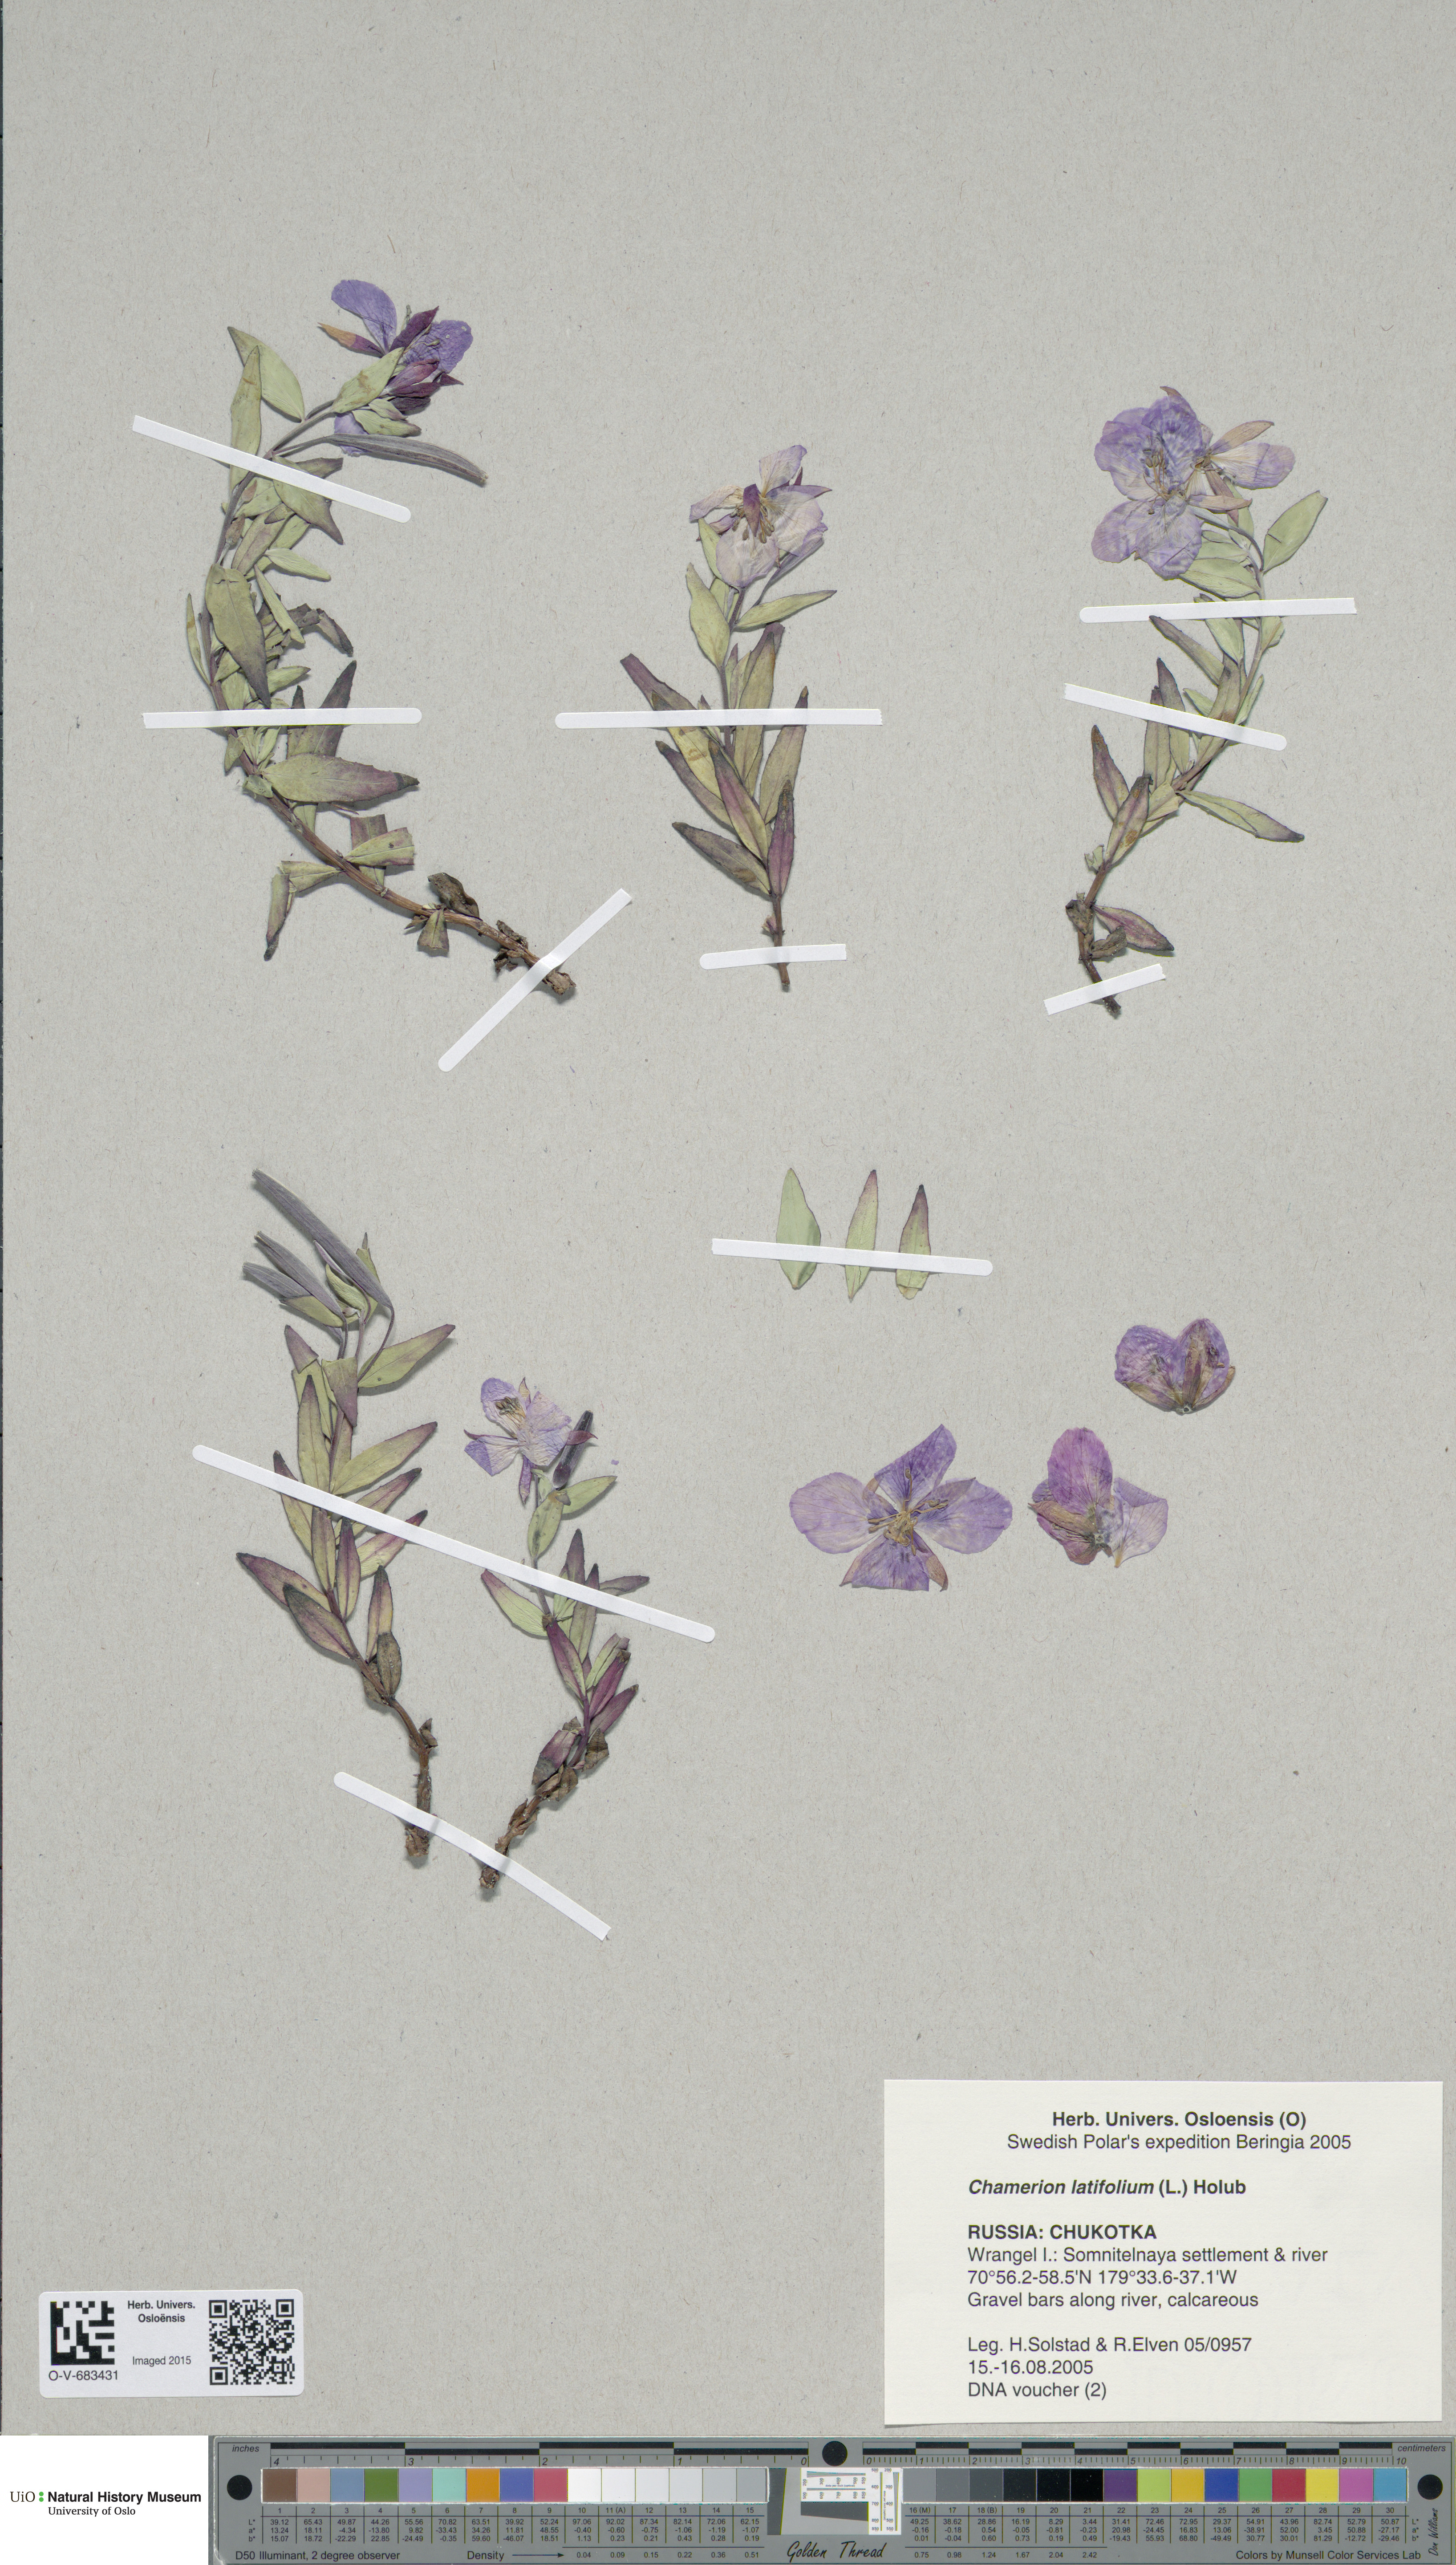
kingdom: Plantae
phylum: Tracheophyta
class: Magnoliopsida
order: Myrtales
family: Onagraceae
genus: Chamaenerion
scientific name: Chamaenerion latifolium
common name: Dwarf fireweed
